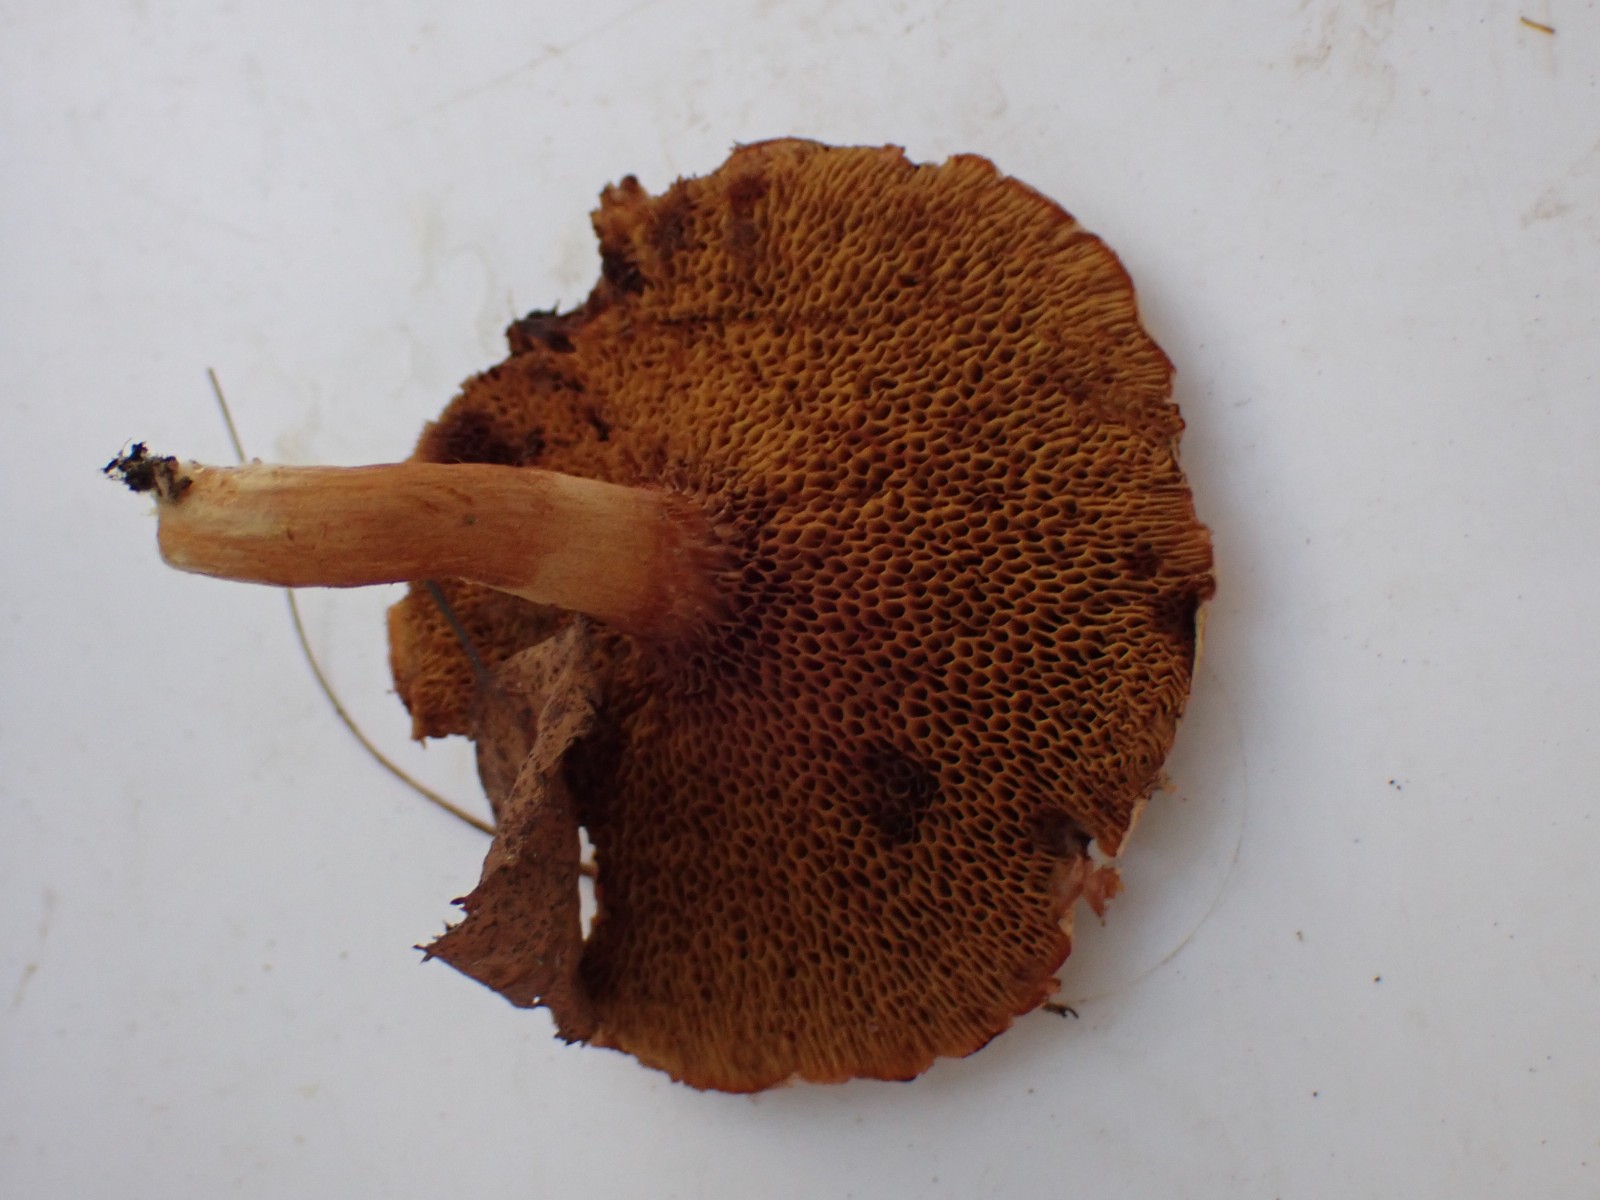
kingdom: Fungi
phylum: Basidiomycota
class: Agaricomycetes
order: Boletales
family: Boletaceae
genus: Chalciporus
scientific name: Chalciporus piperatus
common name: peberrørhat
